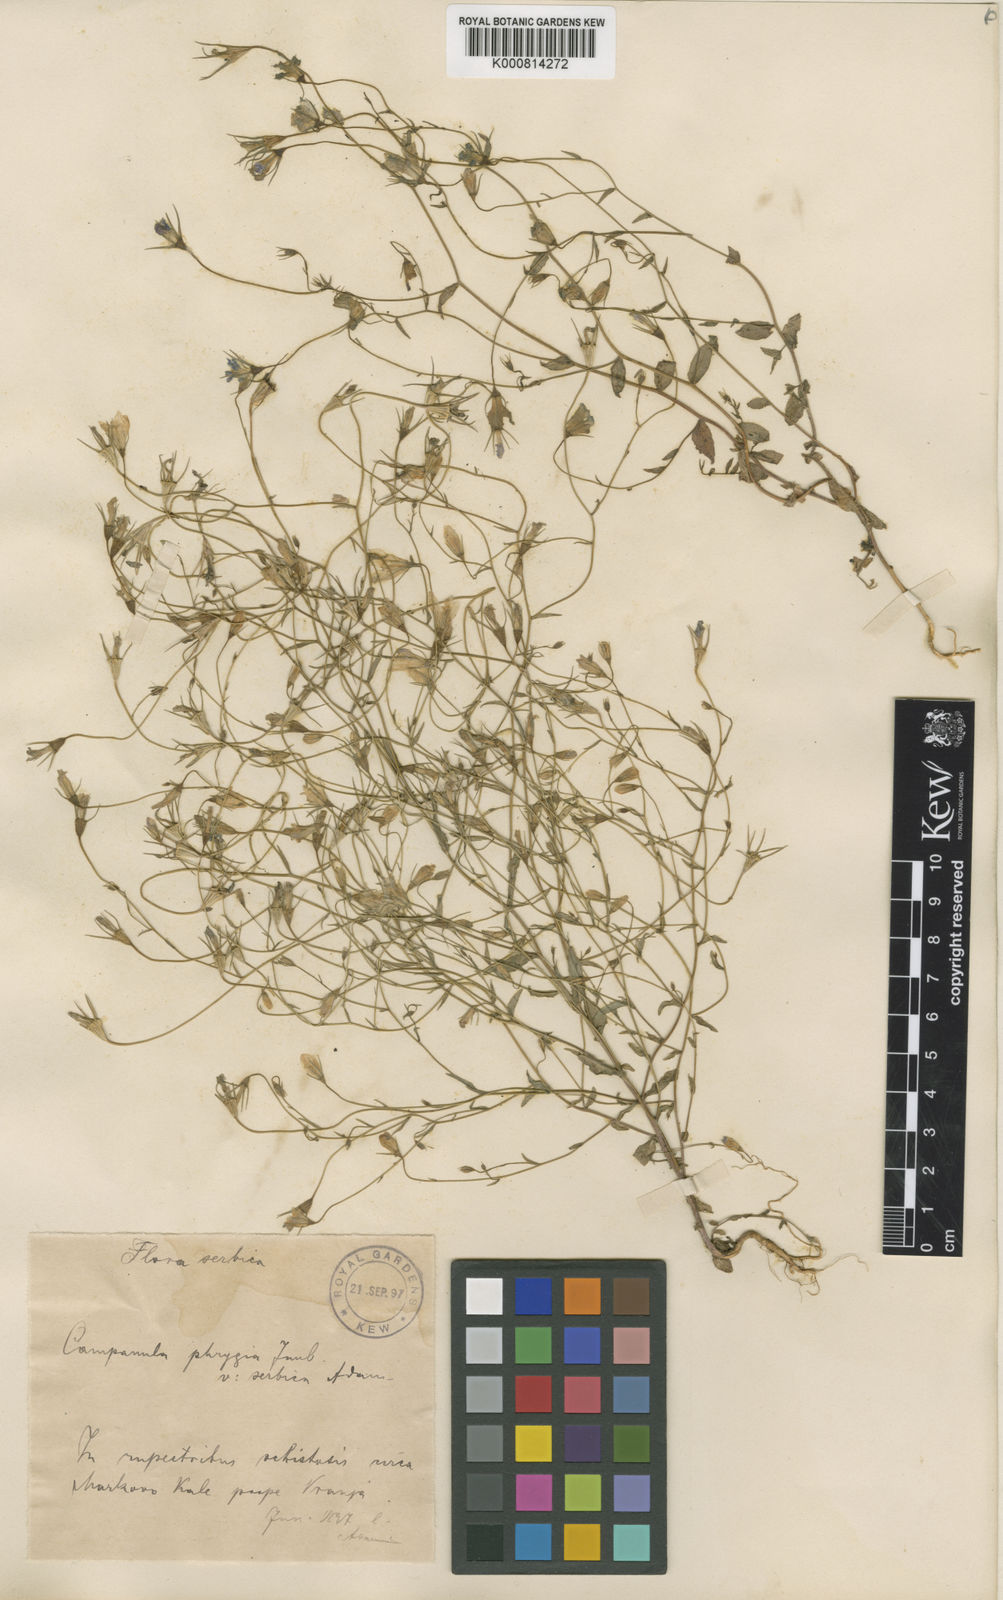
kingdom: Plantae
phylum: Tracheophyta
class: Magnoliopsida
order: Asterales
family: Campanulaceae
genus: Campanula
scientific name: Campanula phrygia
